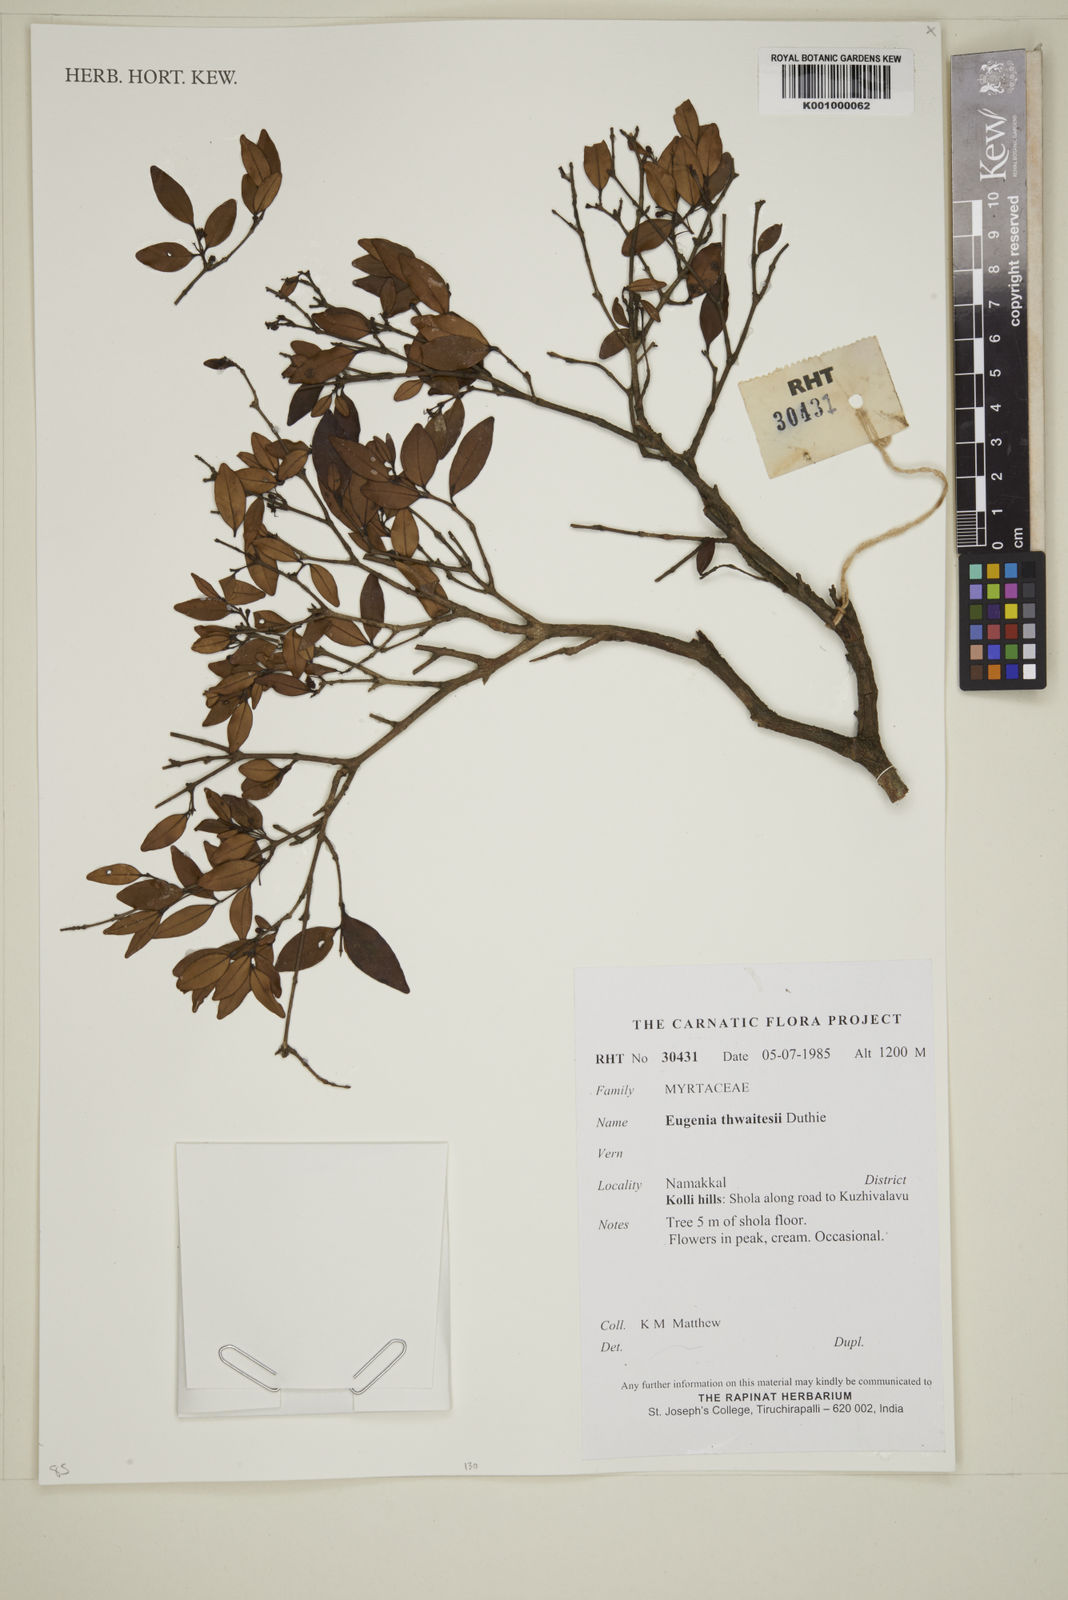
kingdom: Plantae
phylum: Tracheophyta
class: Magnoliopsida
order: Myrtales
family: Myrtaceae
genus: Eugenia
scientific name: Eugenia thwaitesii
